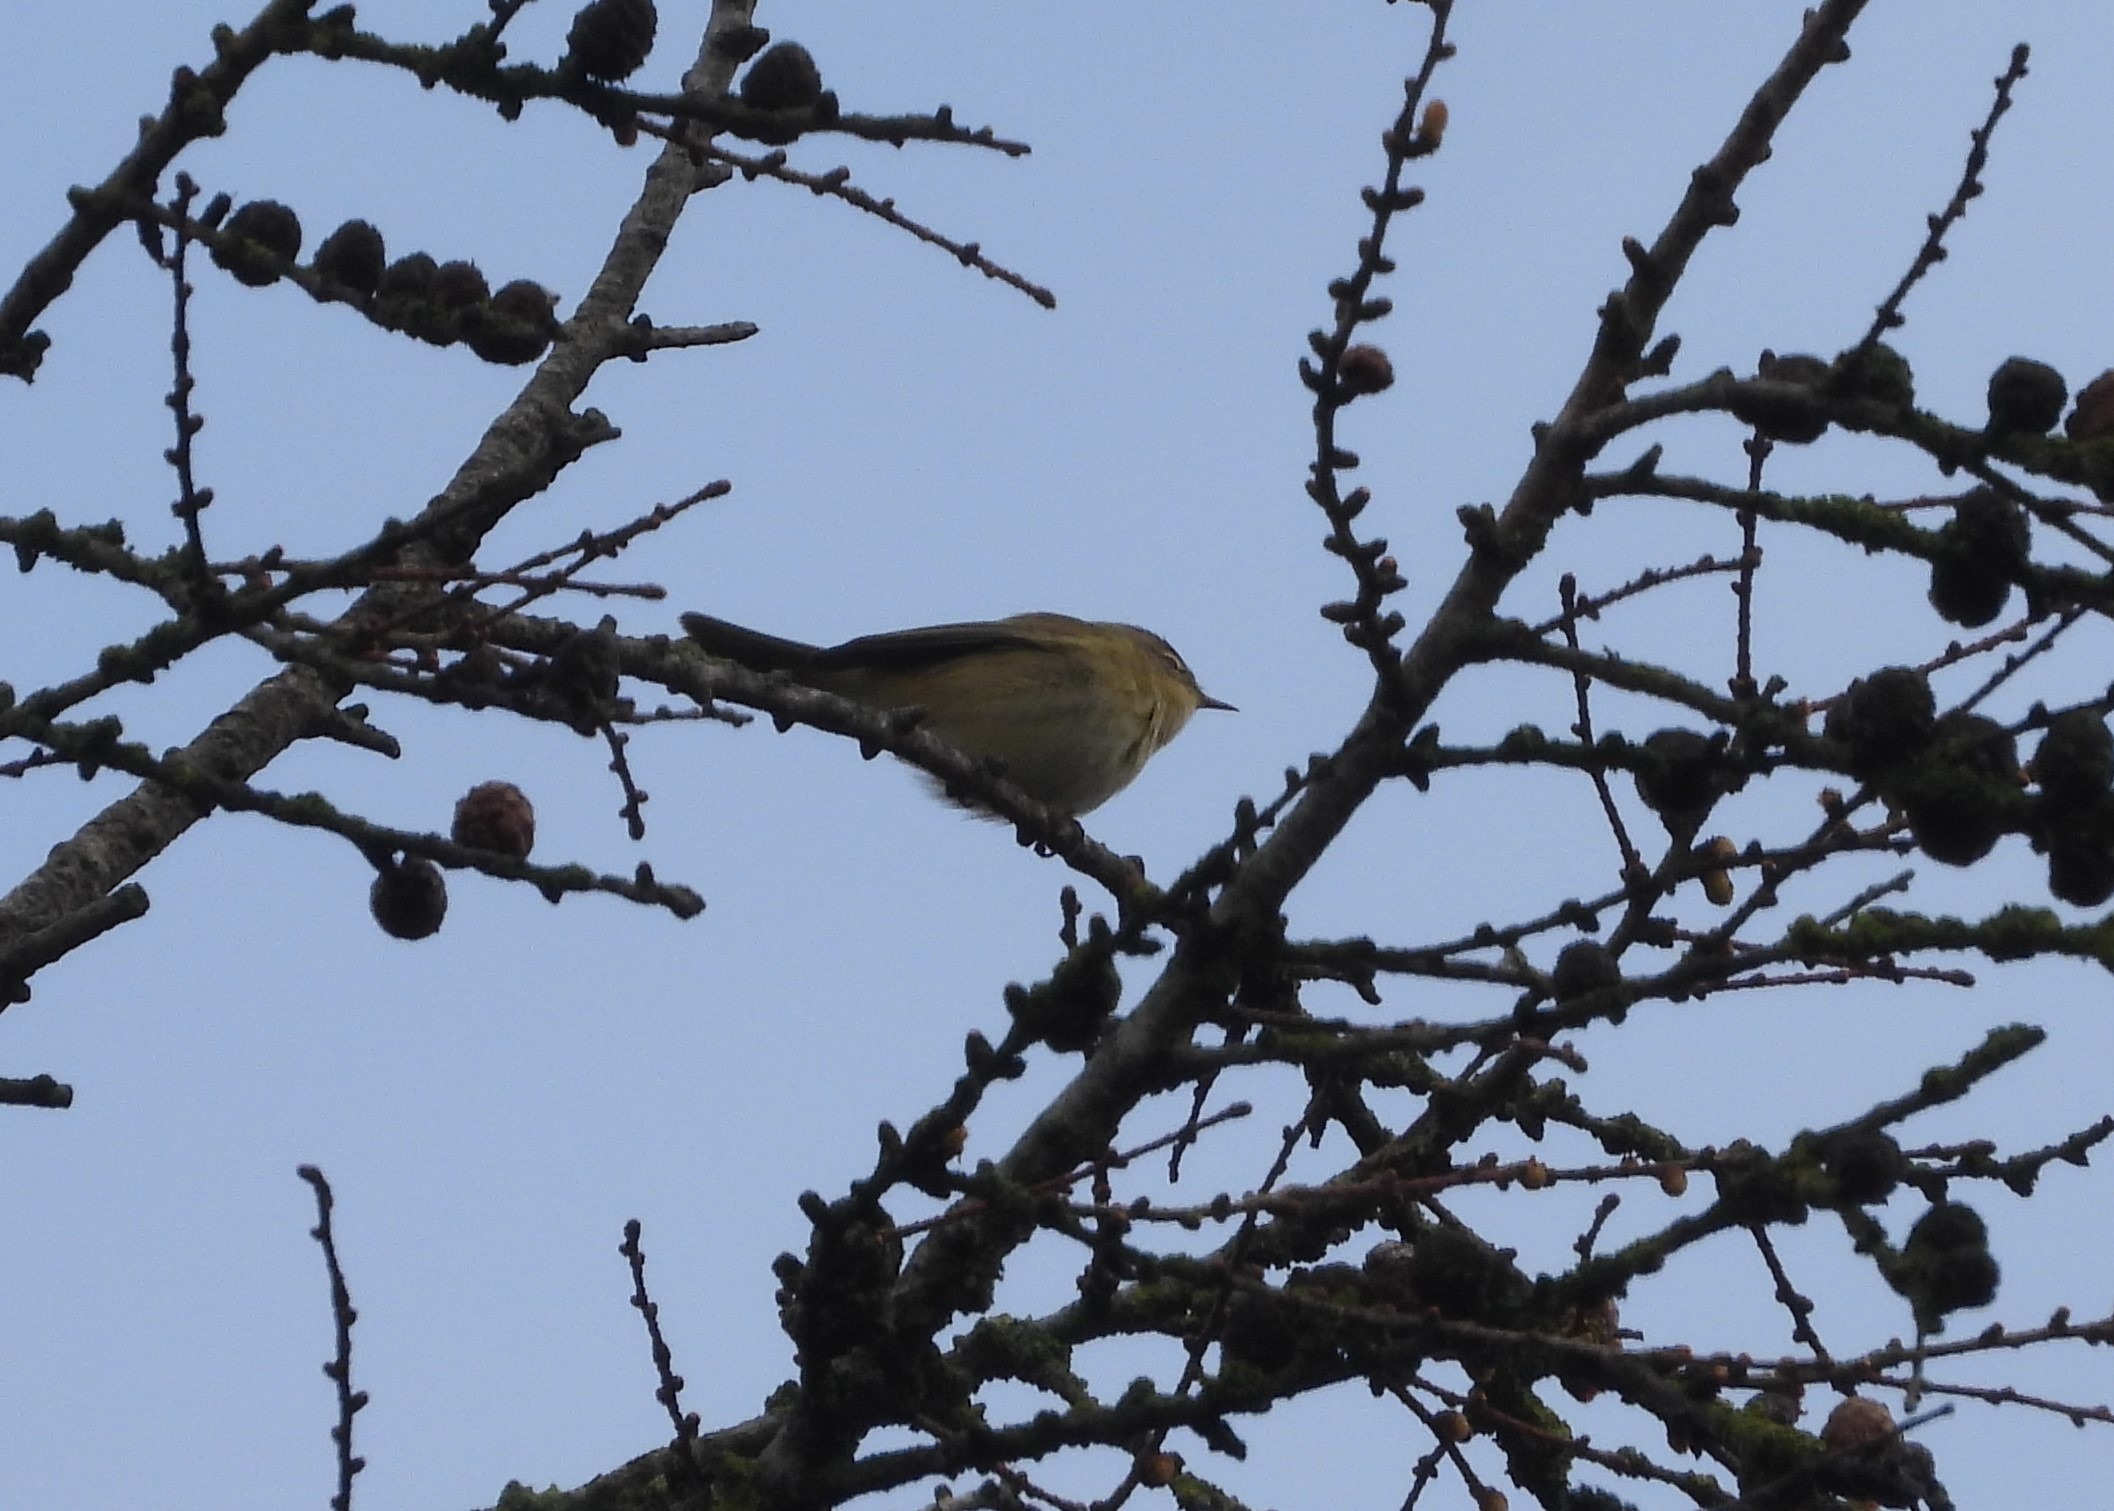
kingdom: Animalia
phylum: Chordata
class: Aves
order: Passeriformes
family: Phylloscopidae
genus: Phylloscopus
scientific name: Phylloscopus collybita
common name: Gransanger
